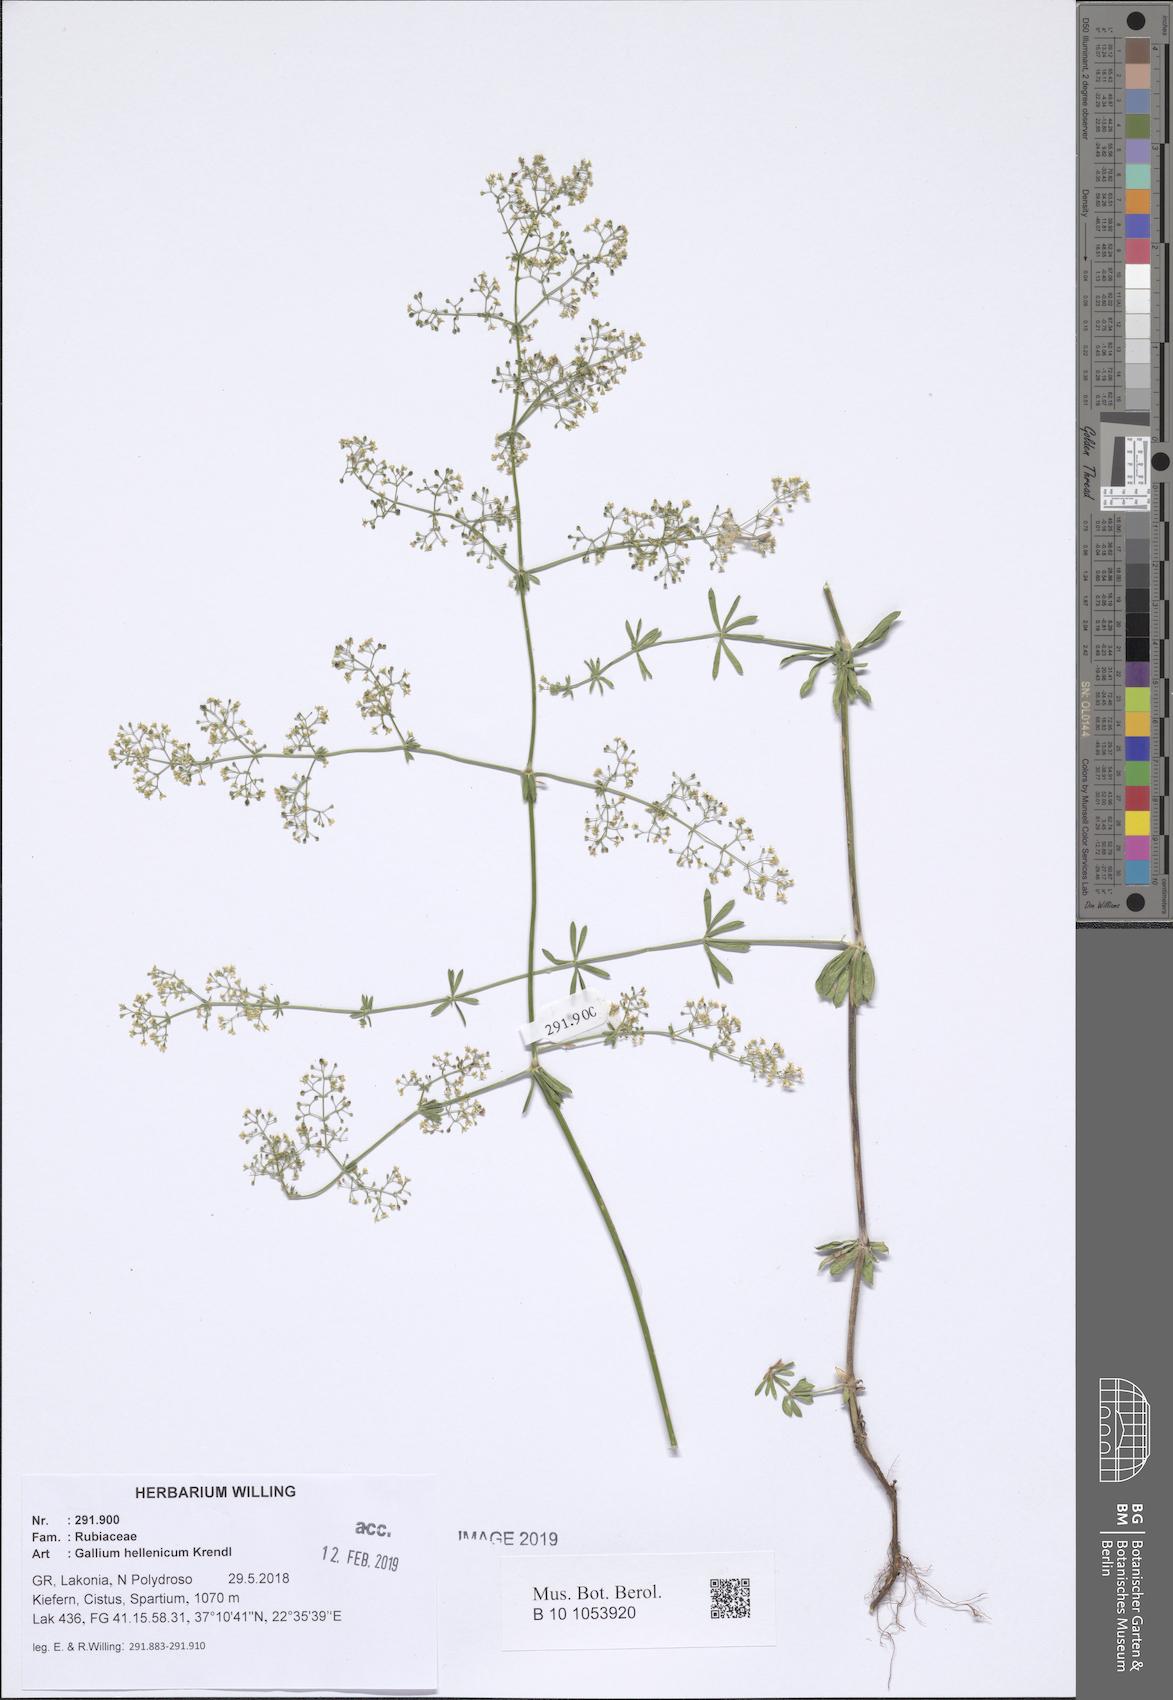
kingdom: Plantae
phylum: Tracheophyta
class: Magnoliopsida
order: Gentianales
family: Rubiaceae
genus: Galium
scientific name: Galium hellenicum
